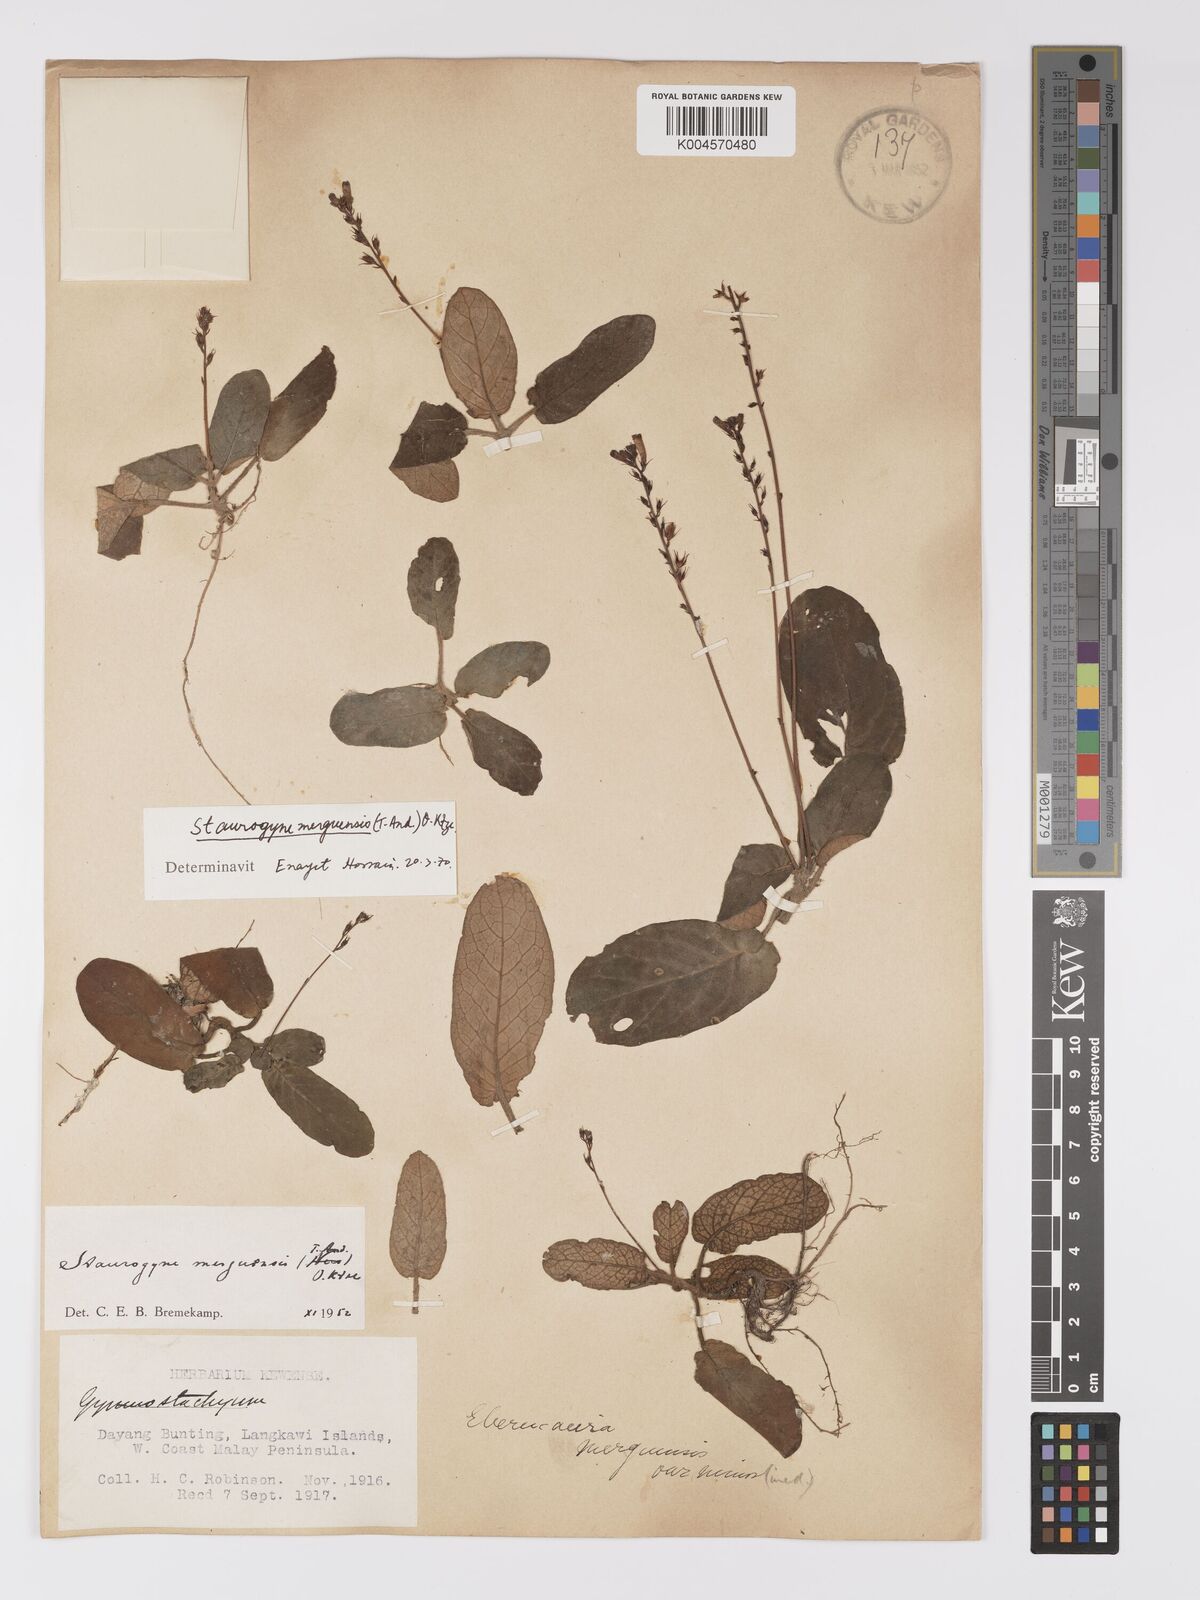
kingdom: Plantae
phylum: Tracheophyta
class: Magnoliopsida
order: Lamiales
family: Acanthaceae
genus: Staurogyne
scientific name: Staurogyne merguensis
